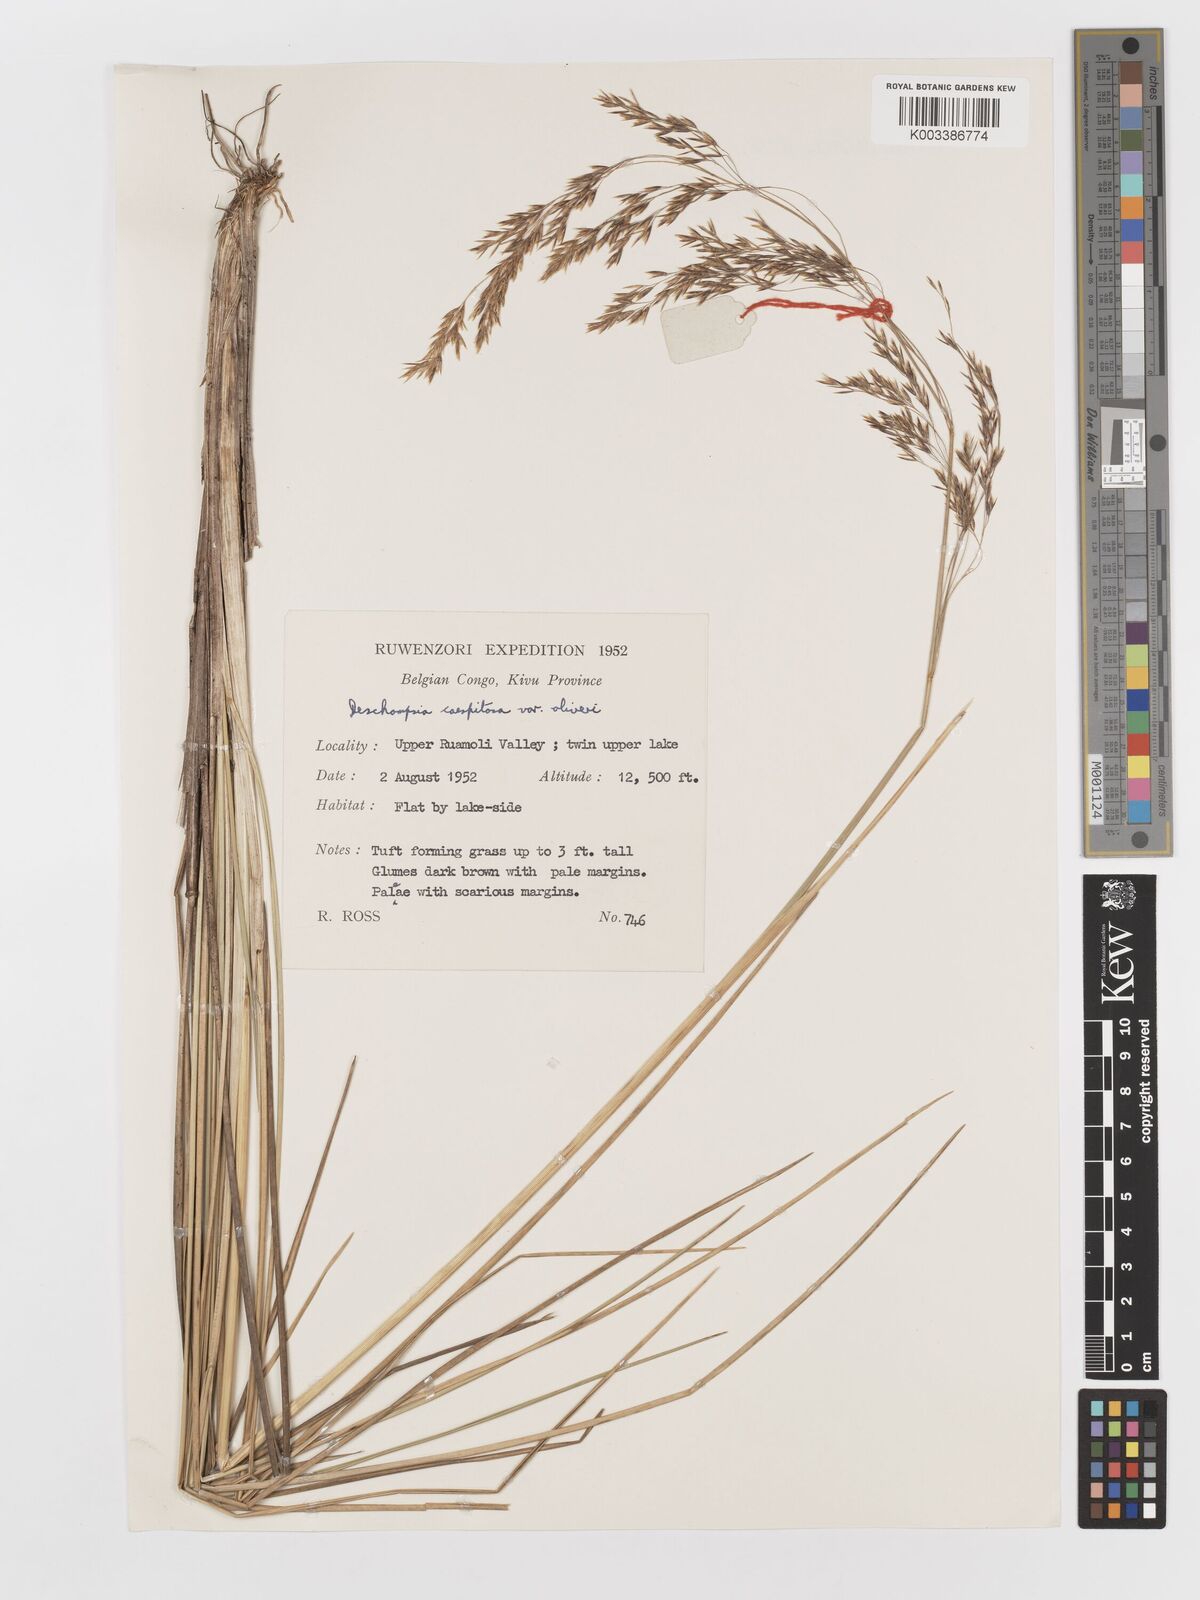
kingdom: Plantae
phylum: Tracheophyta
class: Liliopsida
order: Poales
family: Poaceae
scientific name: Poaceae
